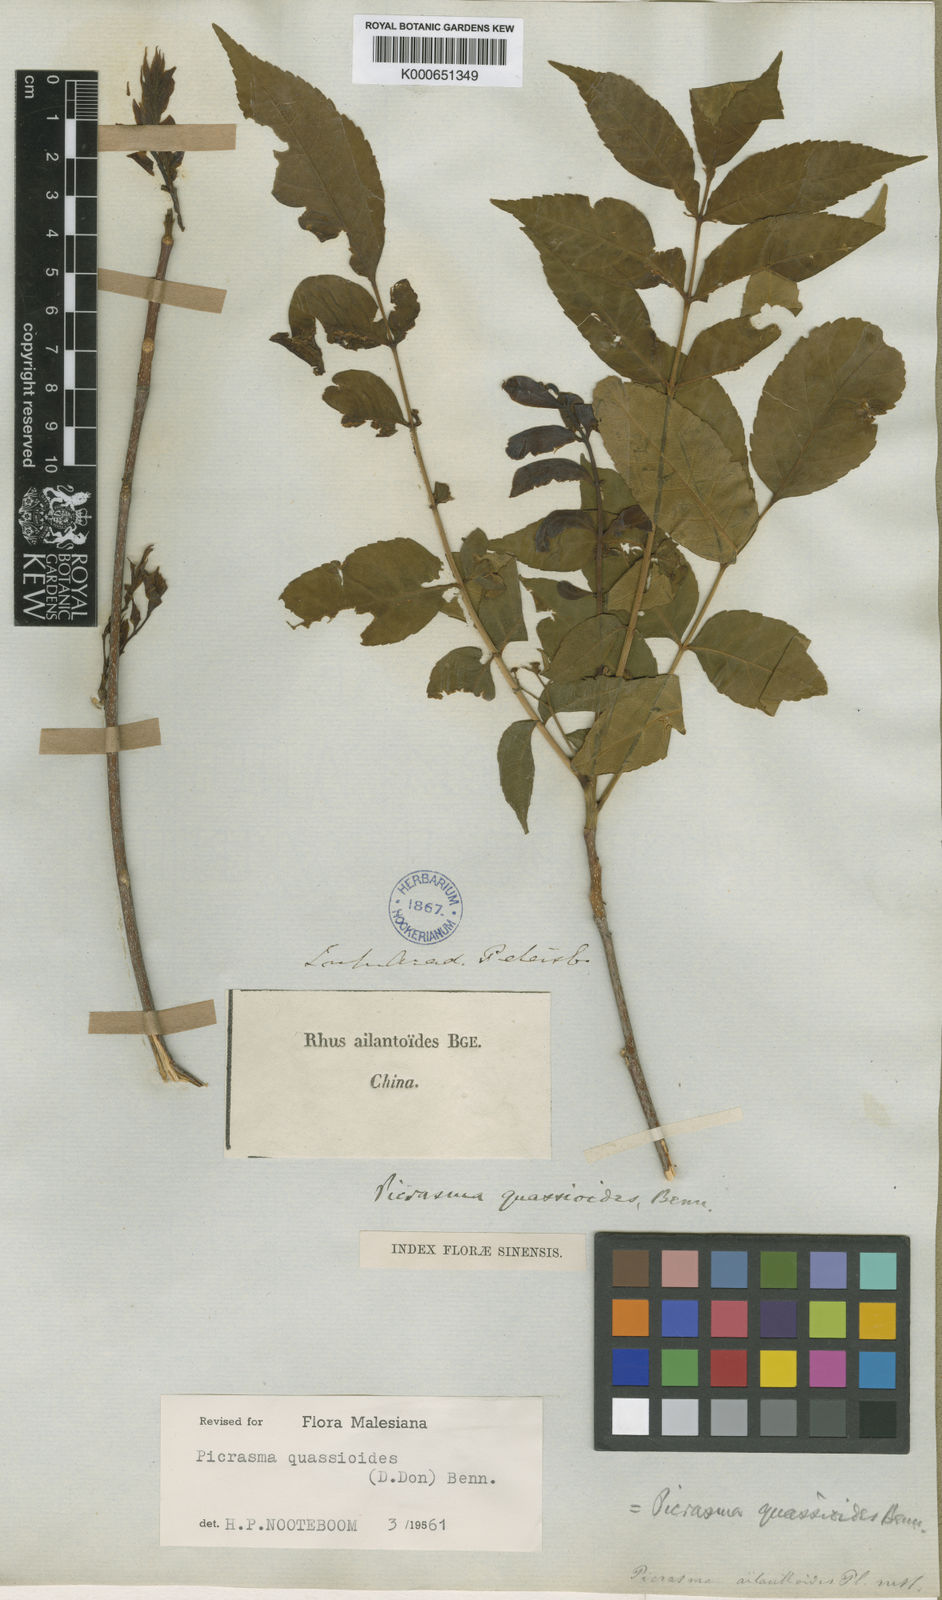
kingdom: Plantae
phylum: Tracheophyta
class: Magnoliopsida
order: Sapindales
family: Simaroubaceae
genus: Picrasma
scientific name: Picrasma quassioides
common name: Shurni
